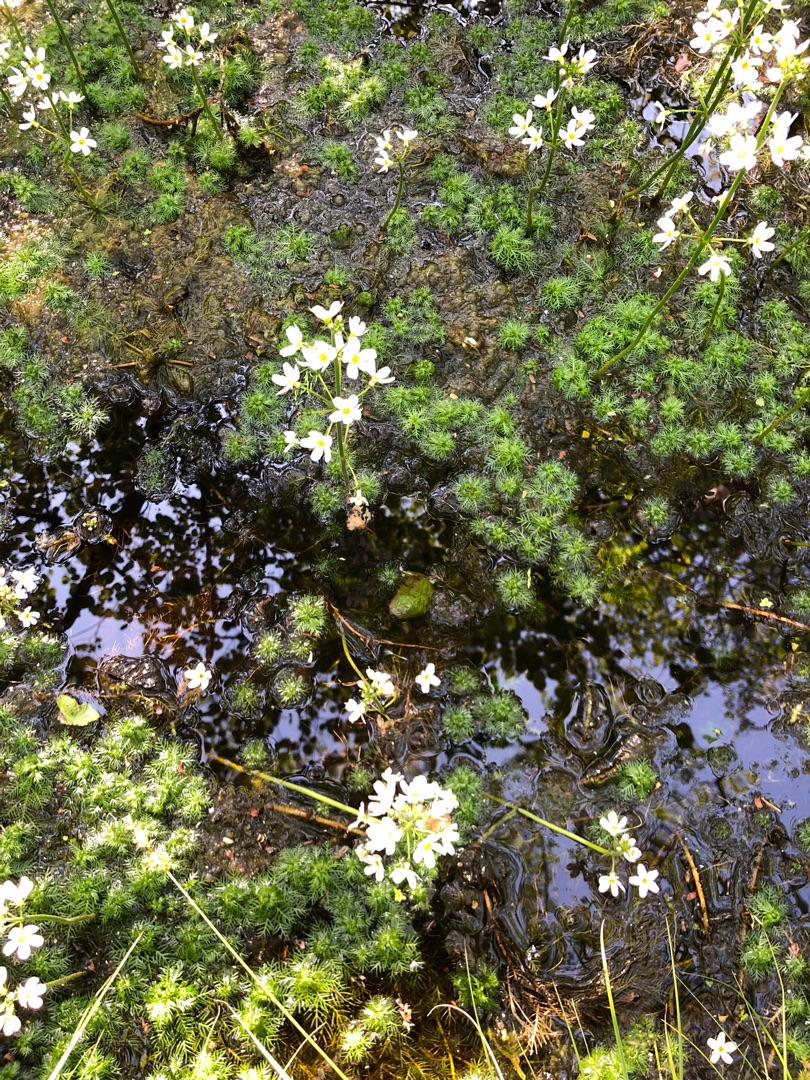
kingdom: Plantae
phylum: Tracheophyta
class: Magnoliopsida
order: Ericales
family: Primulaceae
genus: Hottonia
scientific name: Hottonia palustris
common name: Vandrøllike
